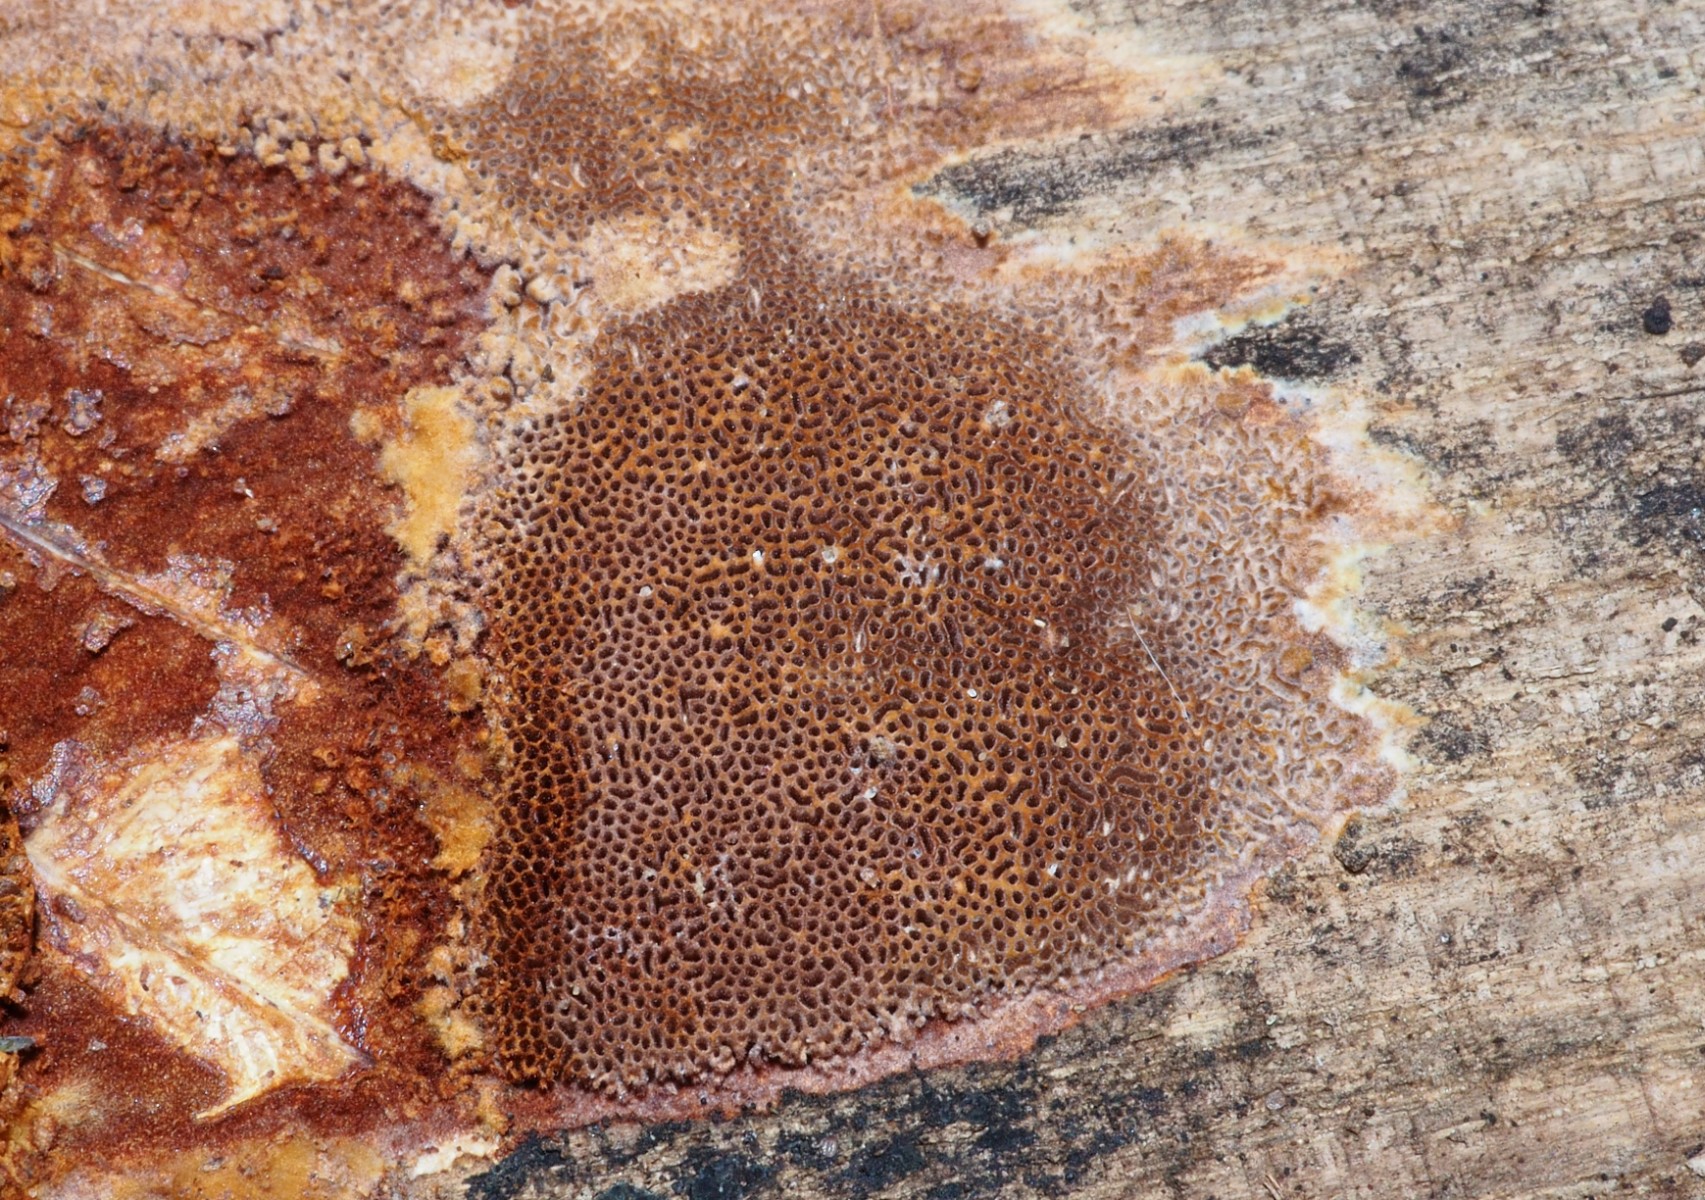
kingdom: Fungi
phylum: Basidiomycota
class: Agaricomycetes
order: Hymenochaetales
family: Hymenochaetaceae
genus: Fuscoporia
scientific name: Fuscoporia
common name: Ildporesvamp
